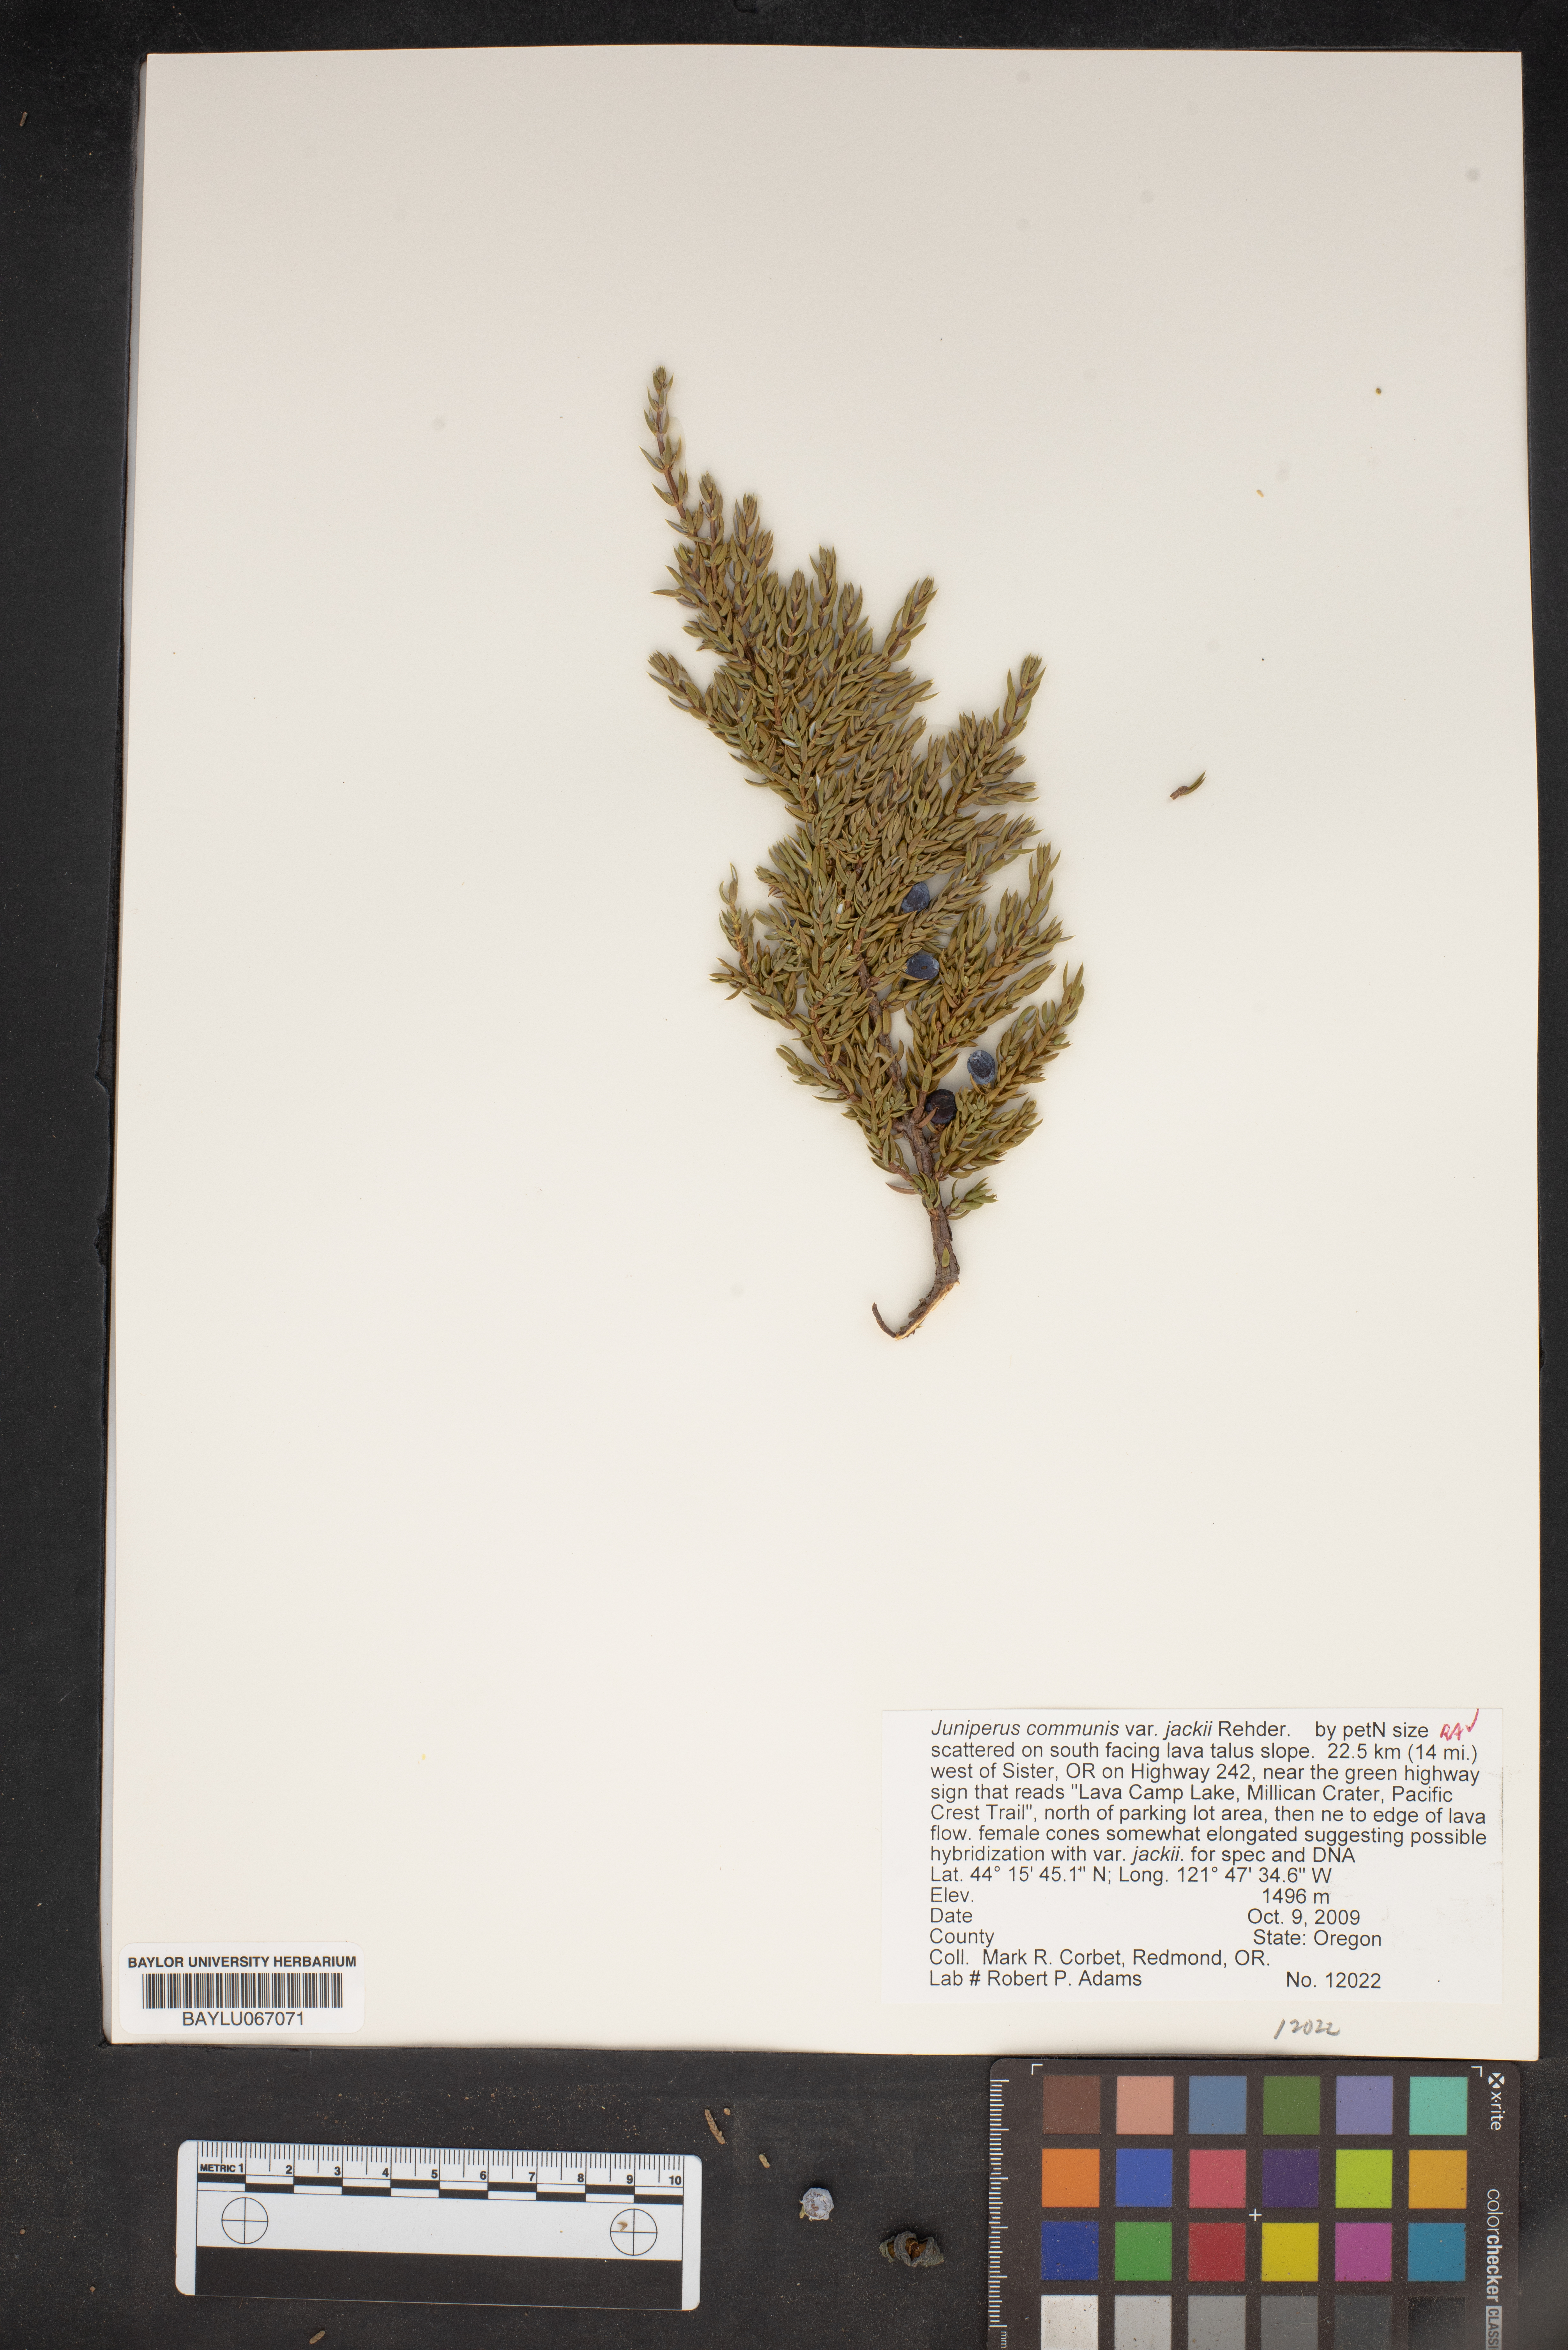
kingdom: Plantae
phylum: Tracheophyta
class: Pinopsida
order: Pinales
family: Cupressaceae
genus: Juniperus
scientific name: Juniperus communis
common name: Common juniper
